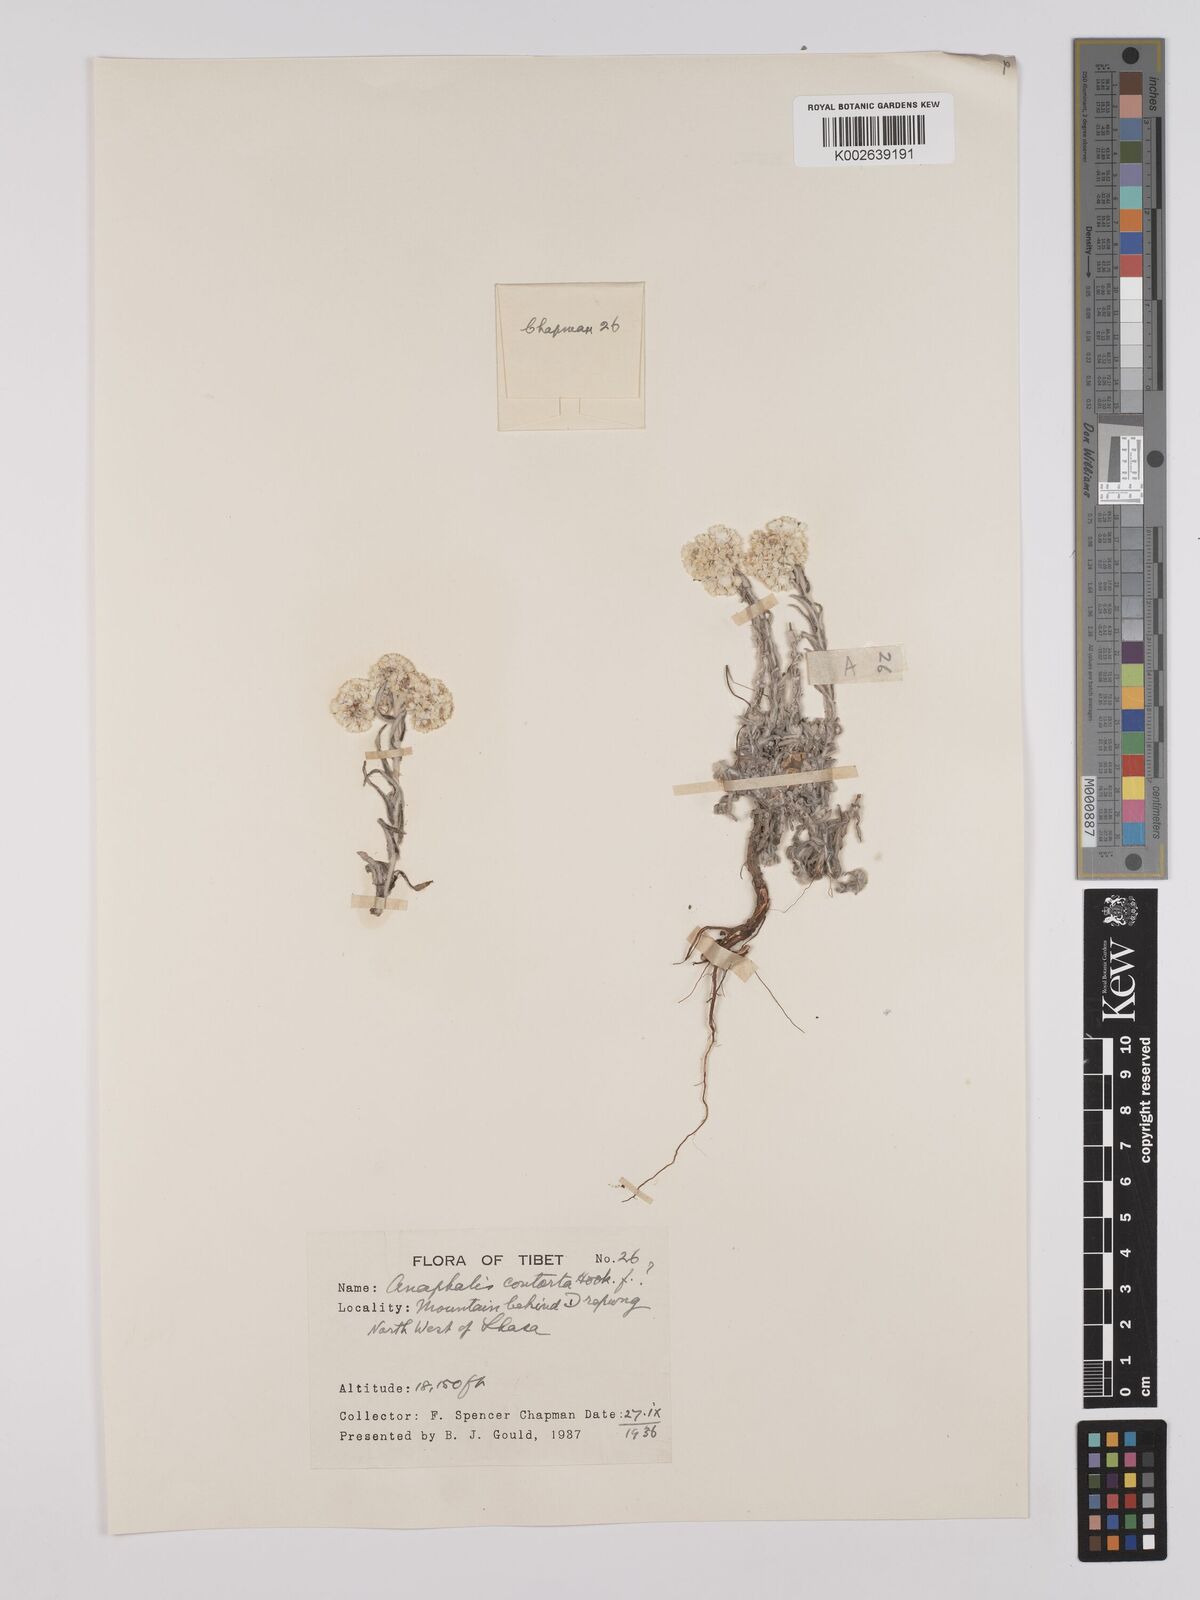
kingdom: Plantae
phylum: Tracheophyta
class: Magnoliopsida
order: Asterales
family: Asteraceae
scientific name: Asteraceae
